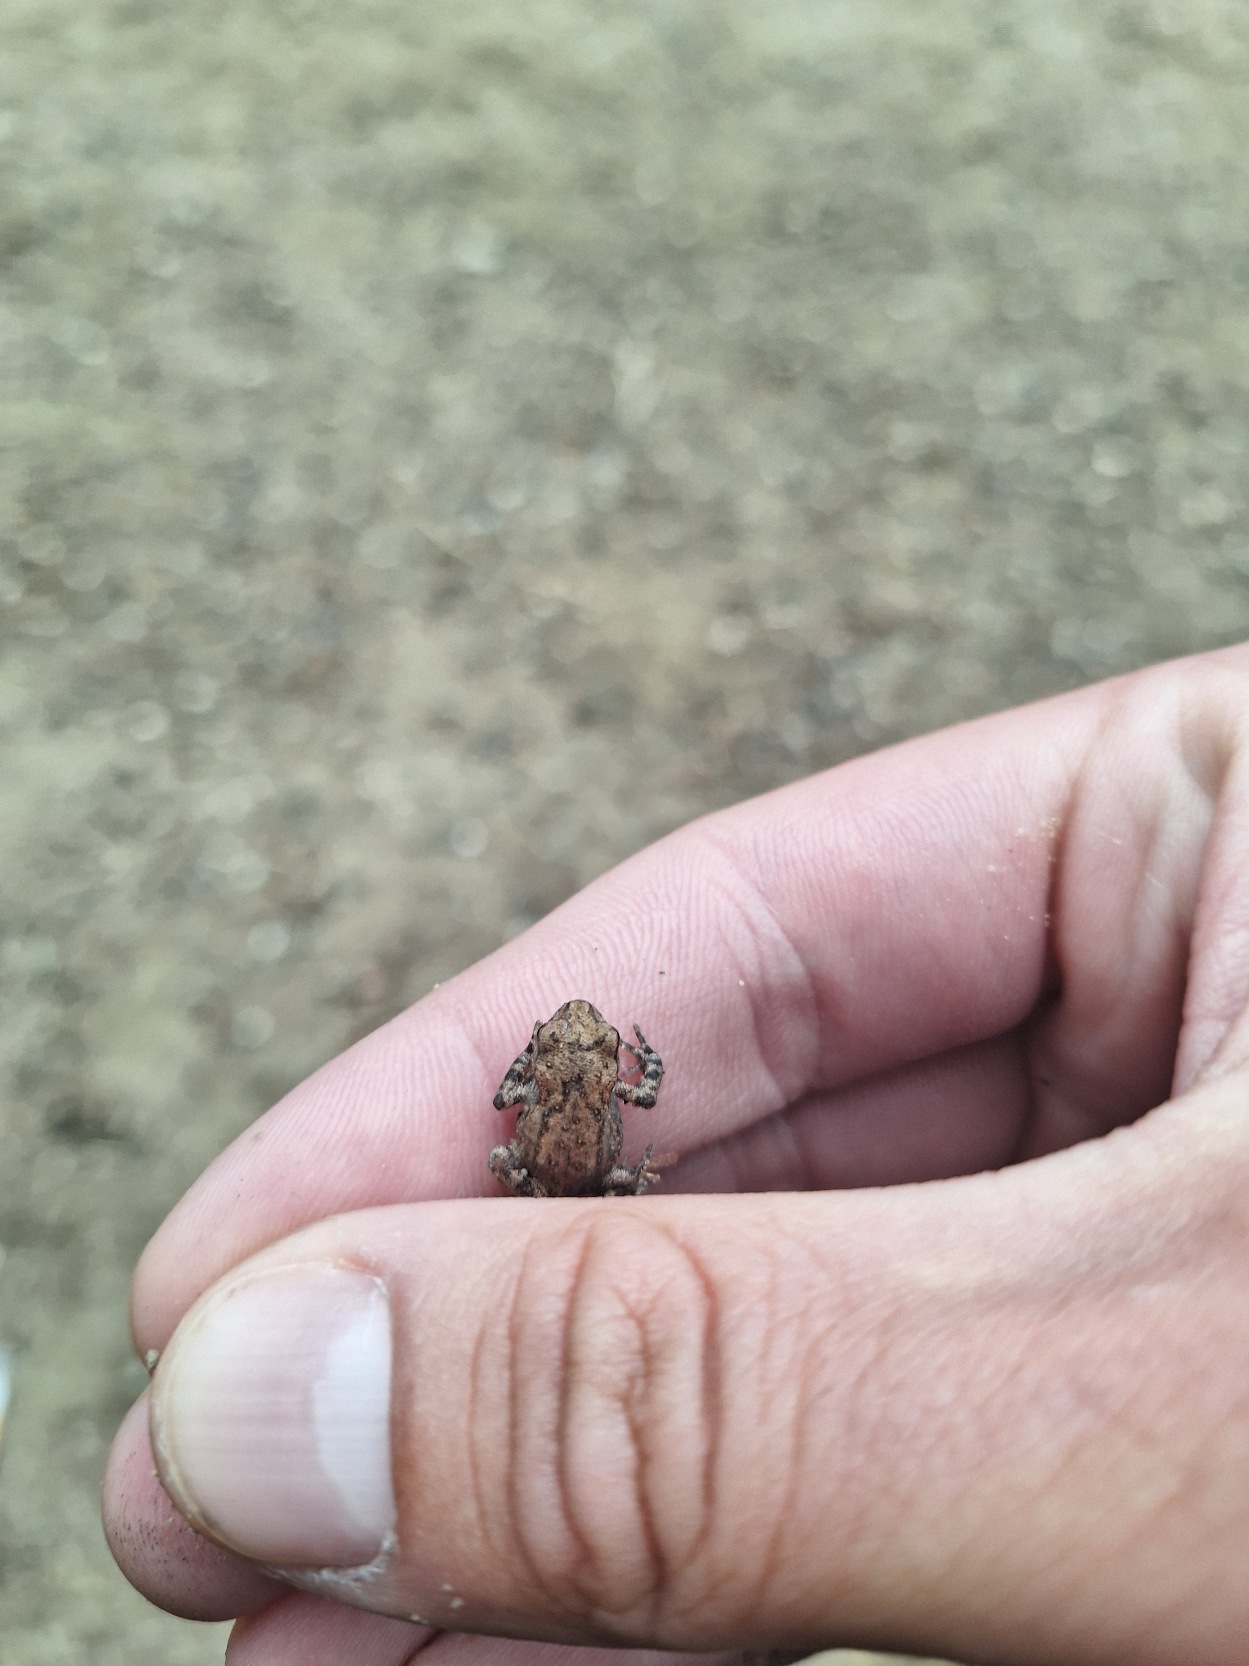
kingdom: Animalia
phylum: Chordata
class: Amphibia
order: Anura
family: Bufonidae
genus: Bufo
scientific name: Bufo bufo
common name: Skrubtudse
